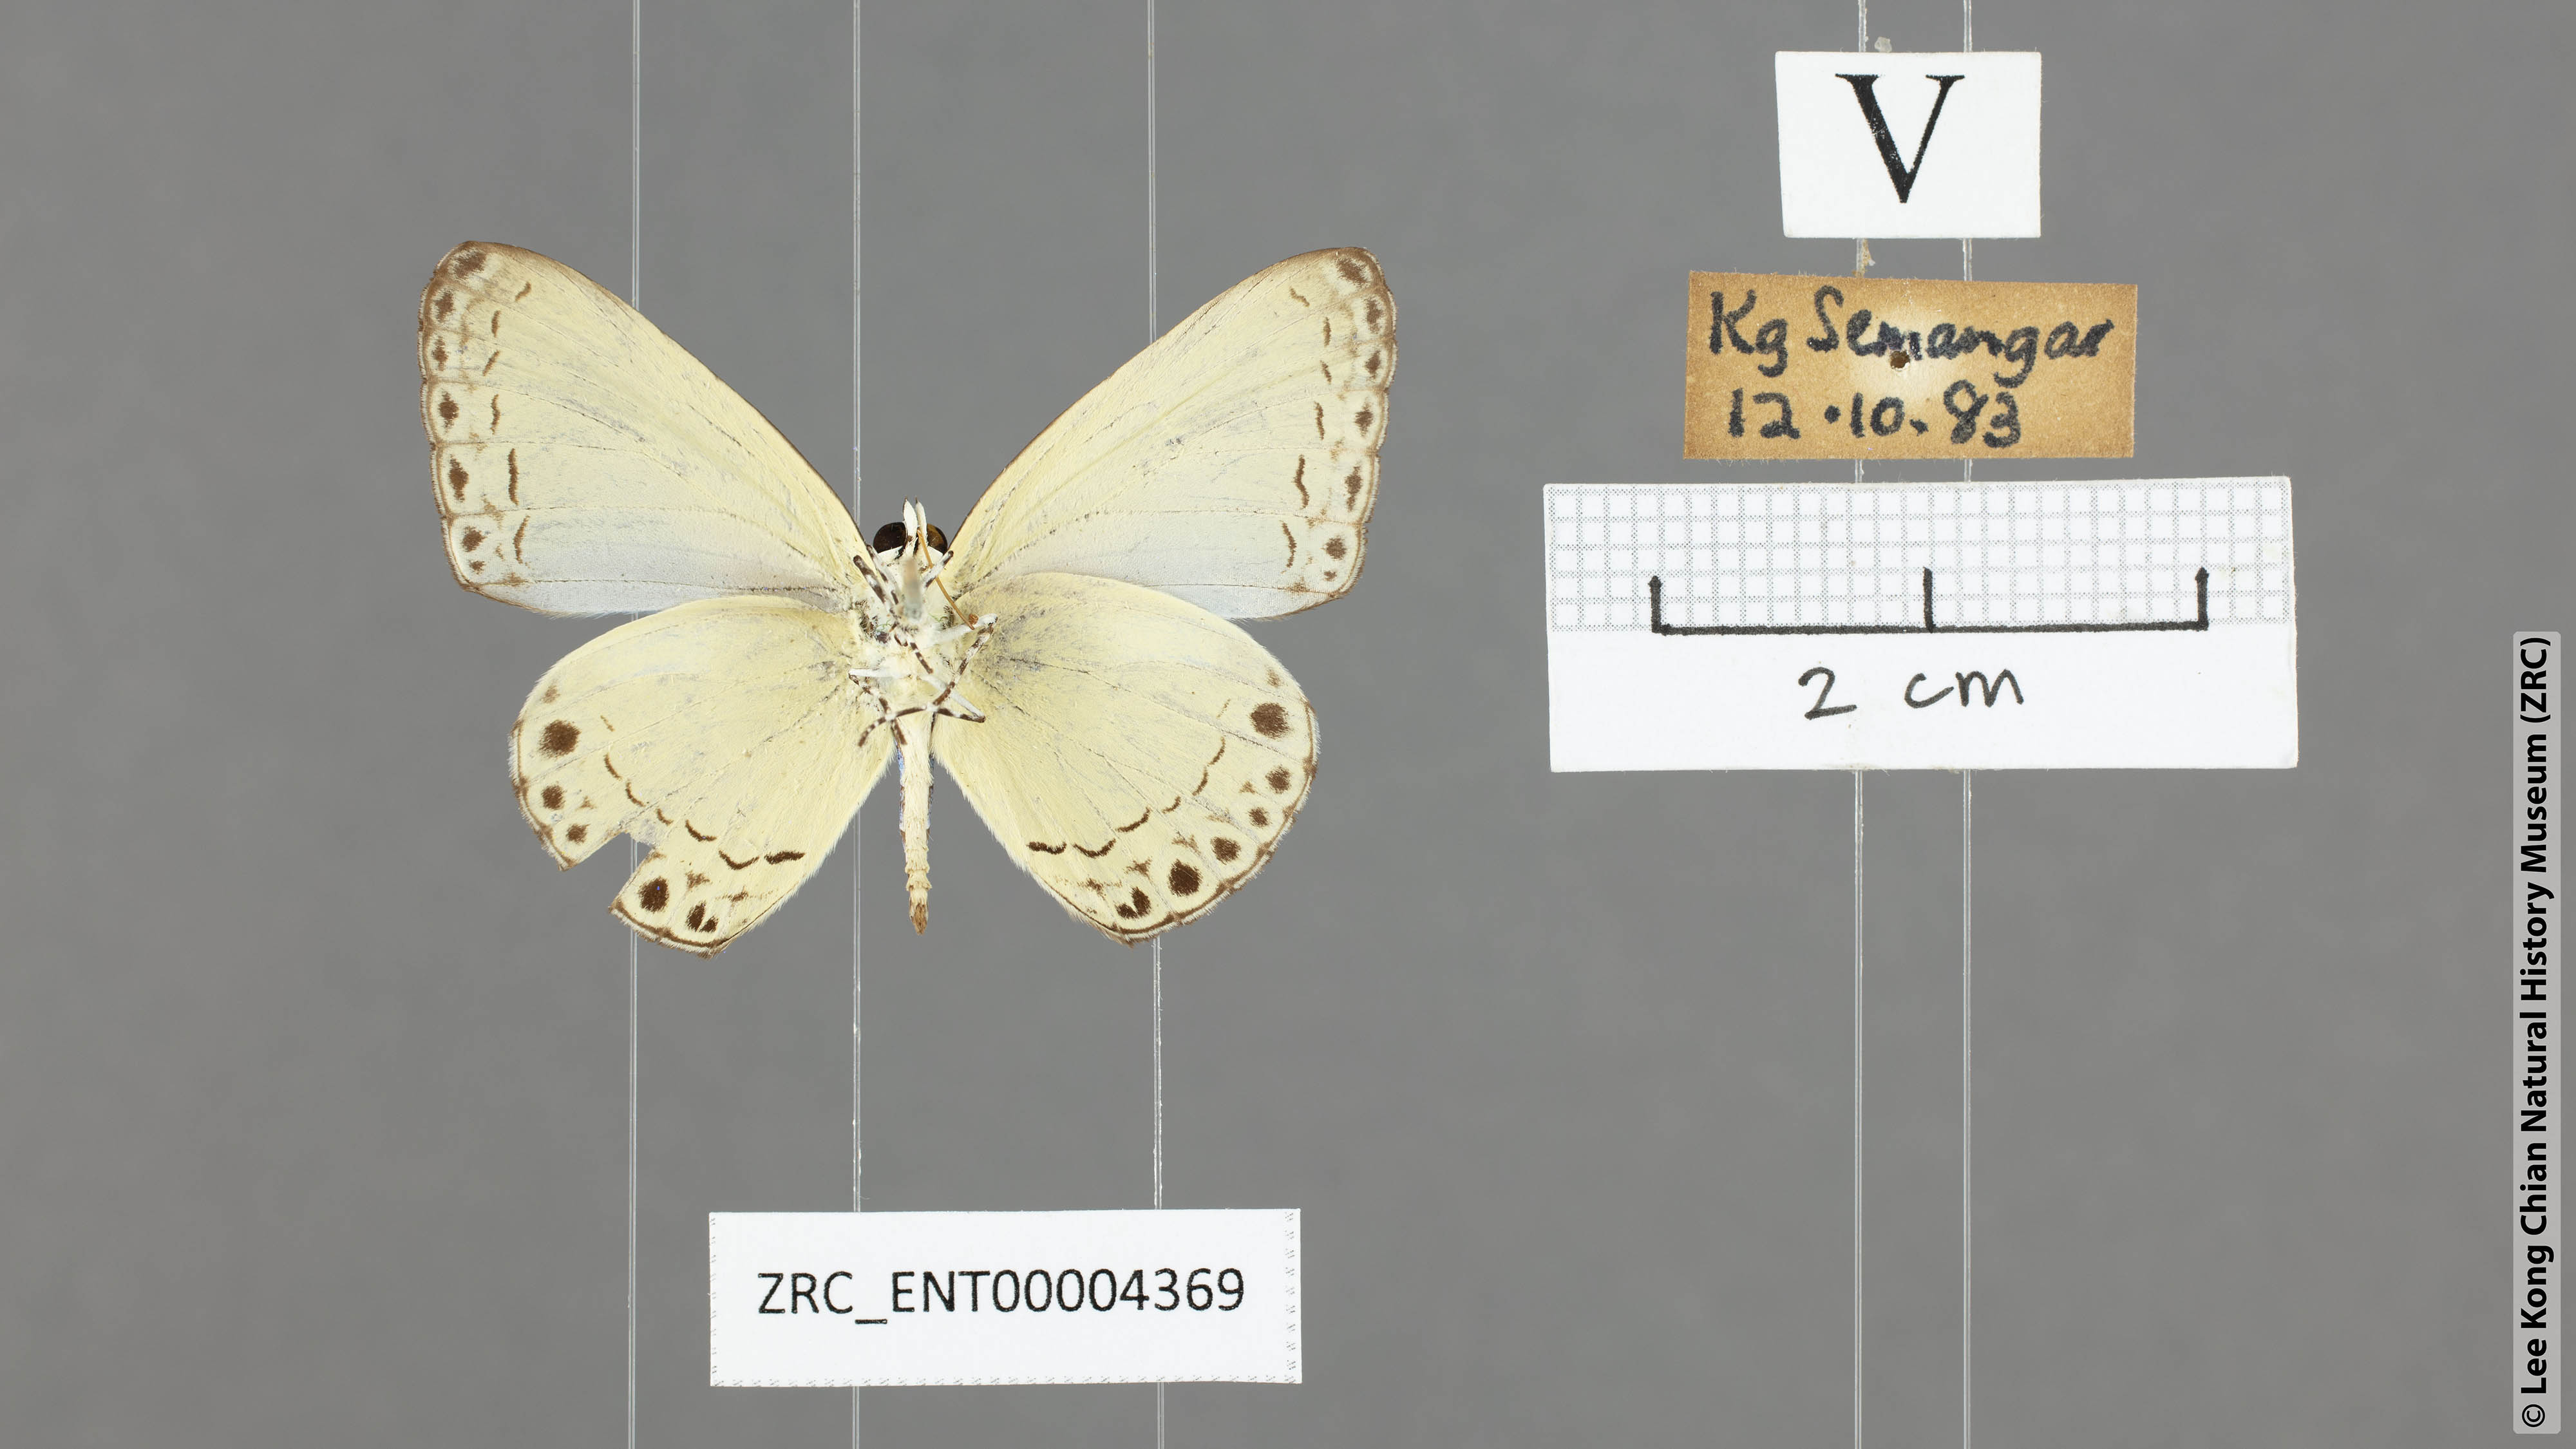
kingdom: Animalia
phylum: Arthropoda
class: Insecta
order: Lepidoptera
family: Lycaenidae
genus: Lycaenopsis
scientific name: Lycaenopsis haraldus
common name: Felder's hedge blue
